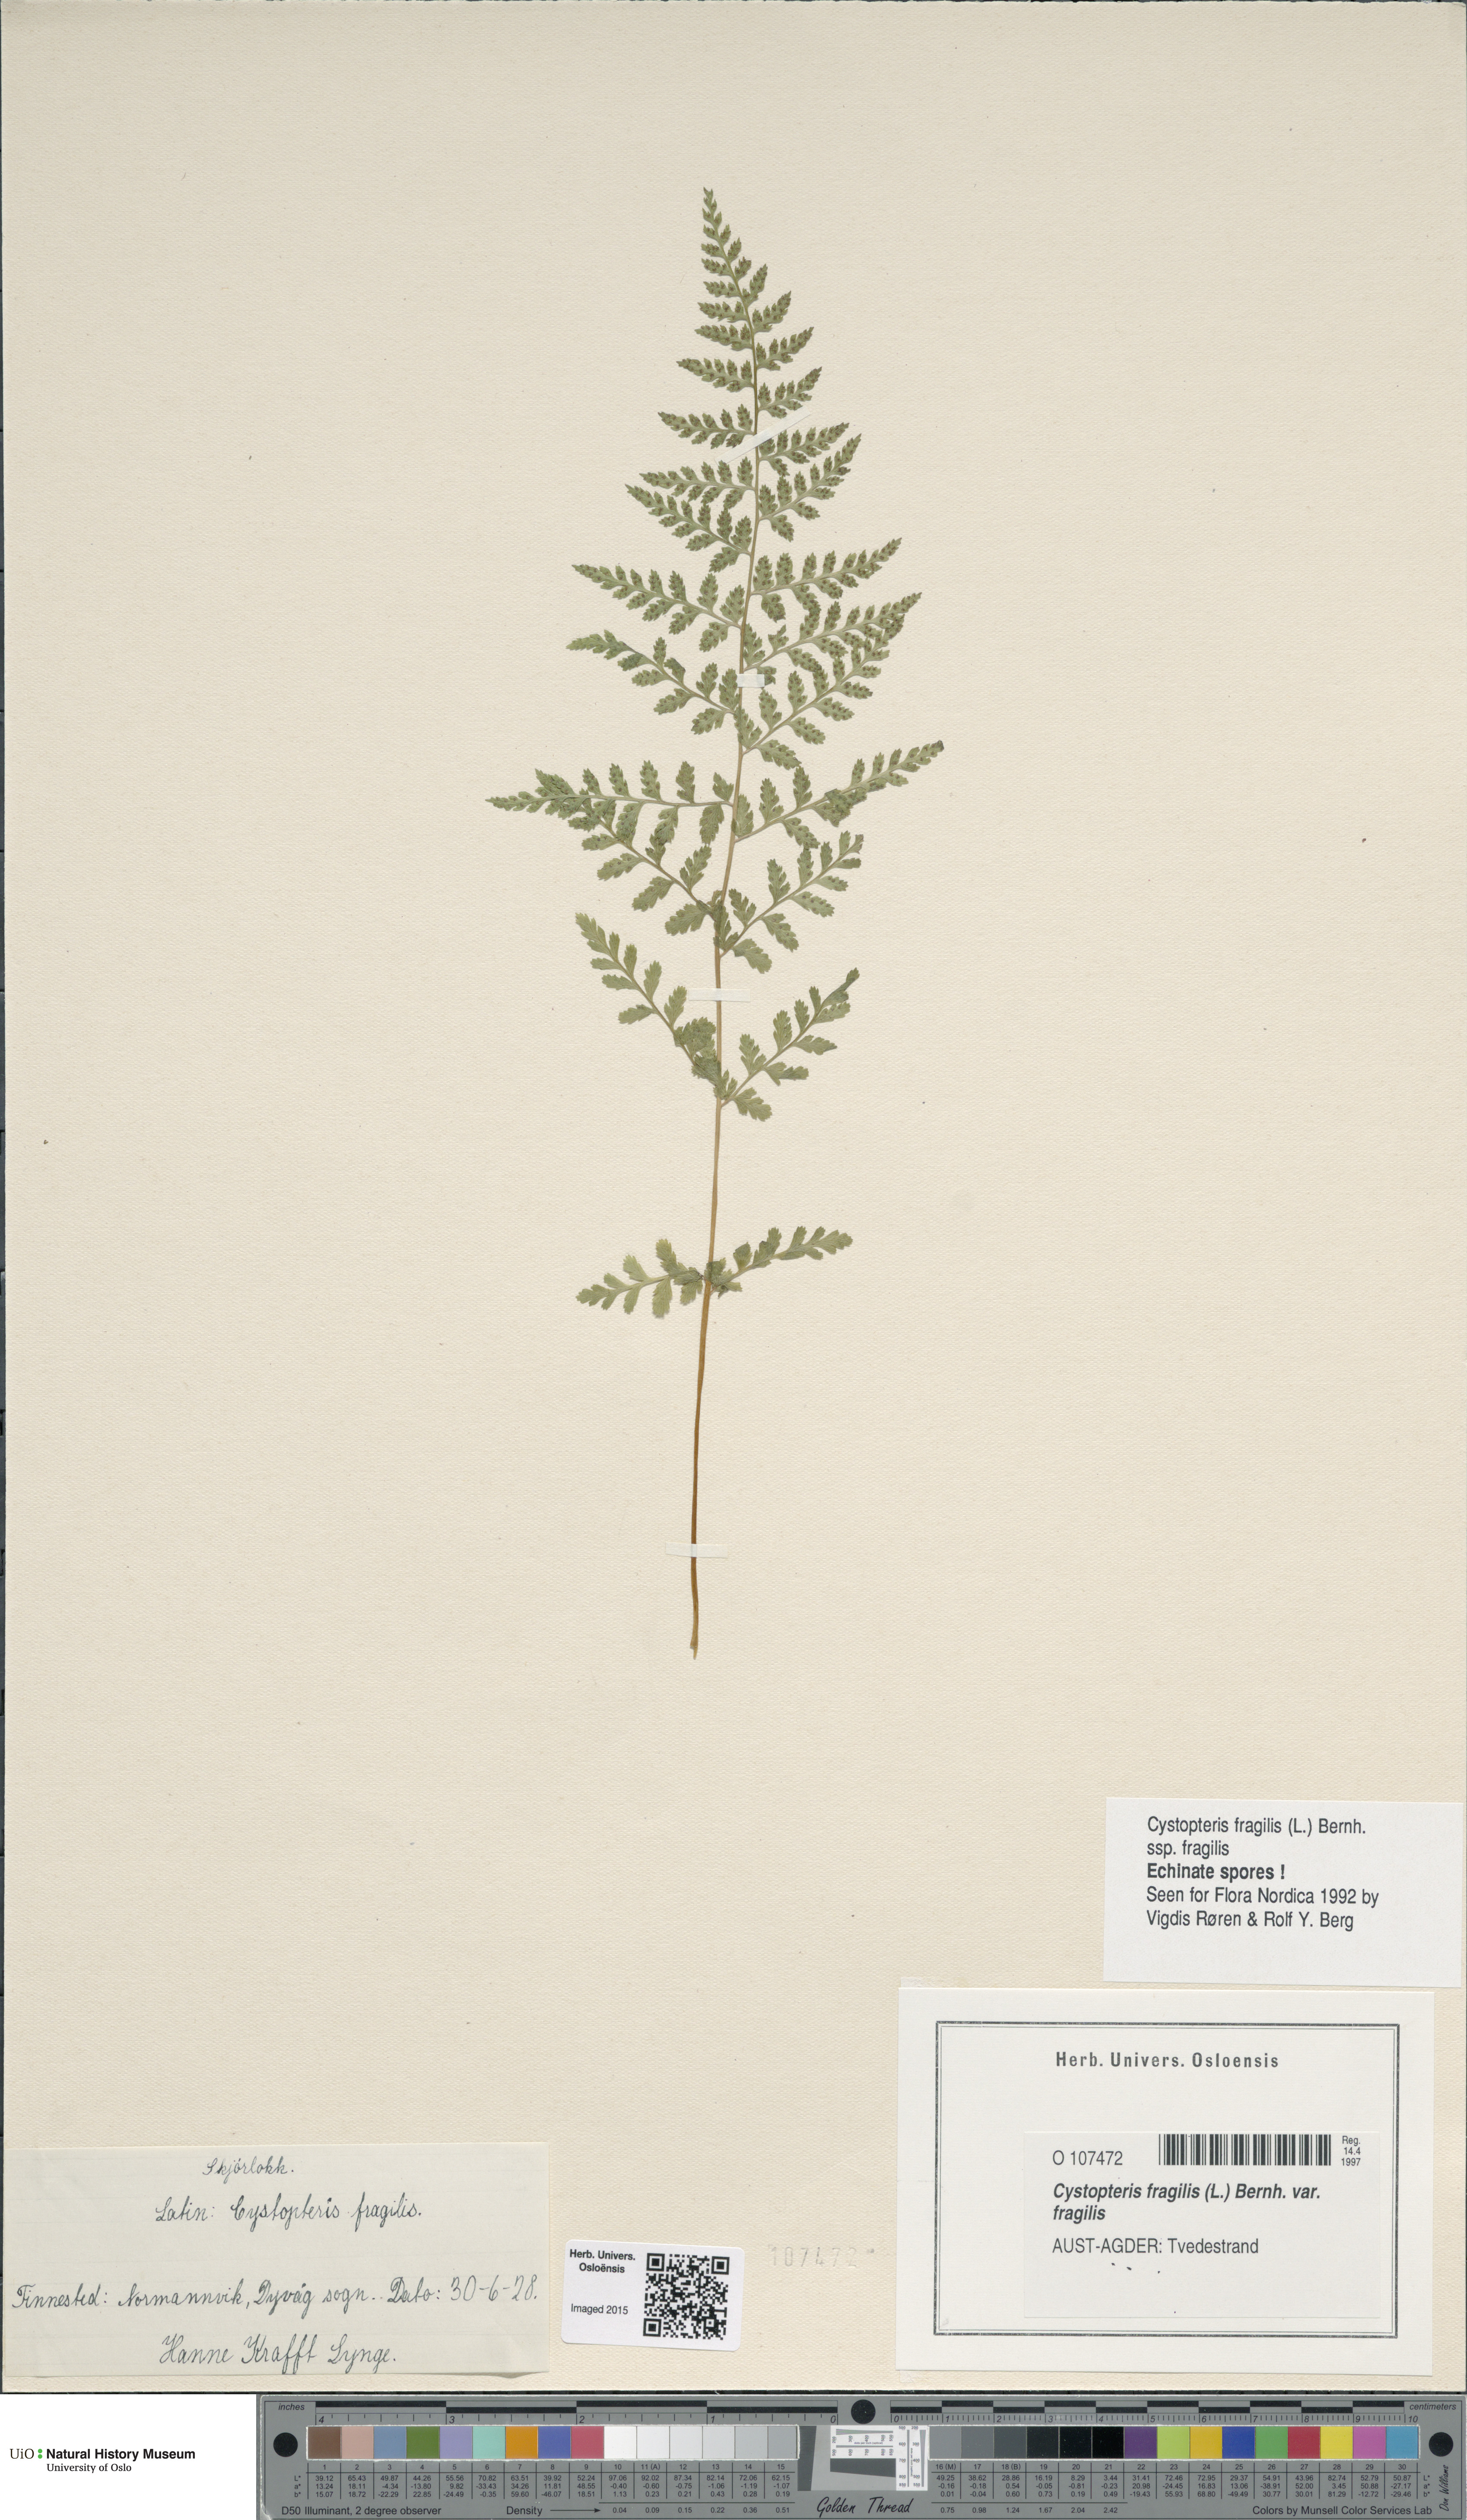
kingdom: Plantae
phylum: Tracheophyta
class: Polypodiopsida
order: Polypodiales
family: Cystopteridaceae
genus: Cystopteris
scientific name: Cystopteris fragilis
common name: Brittle bladder fern
